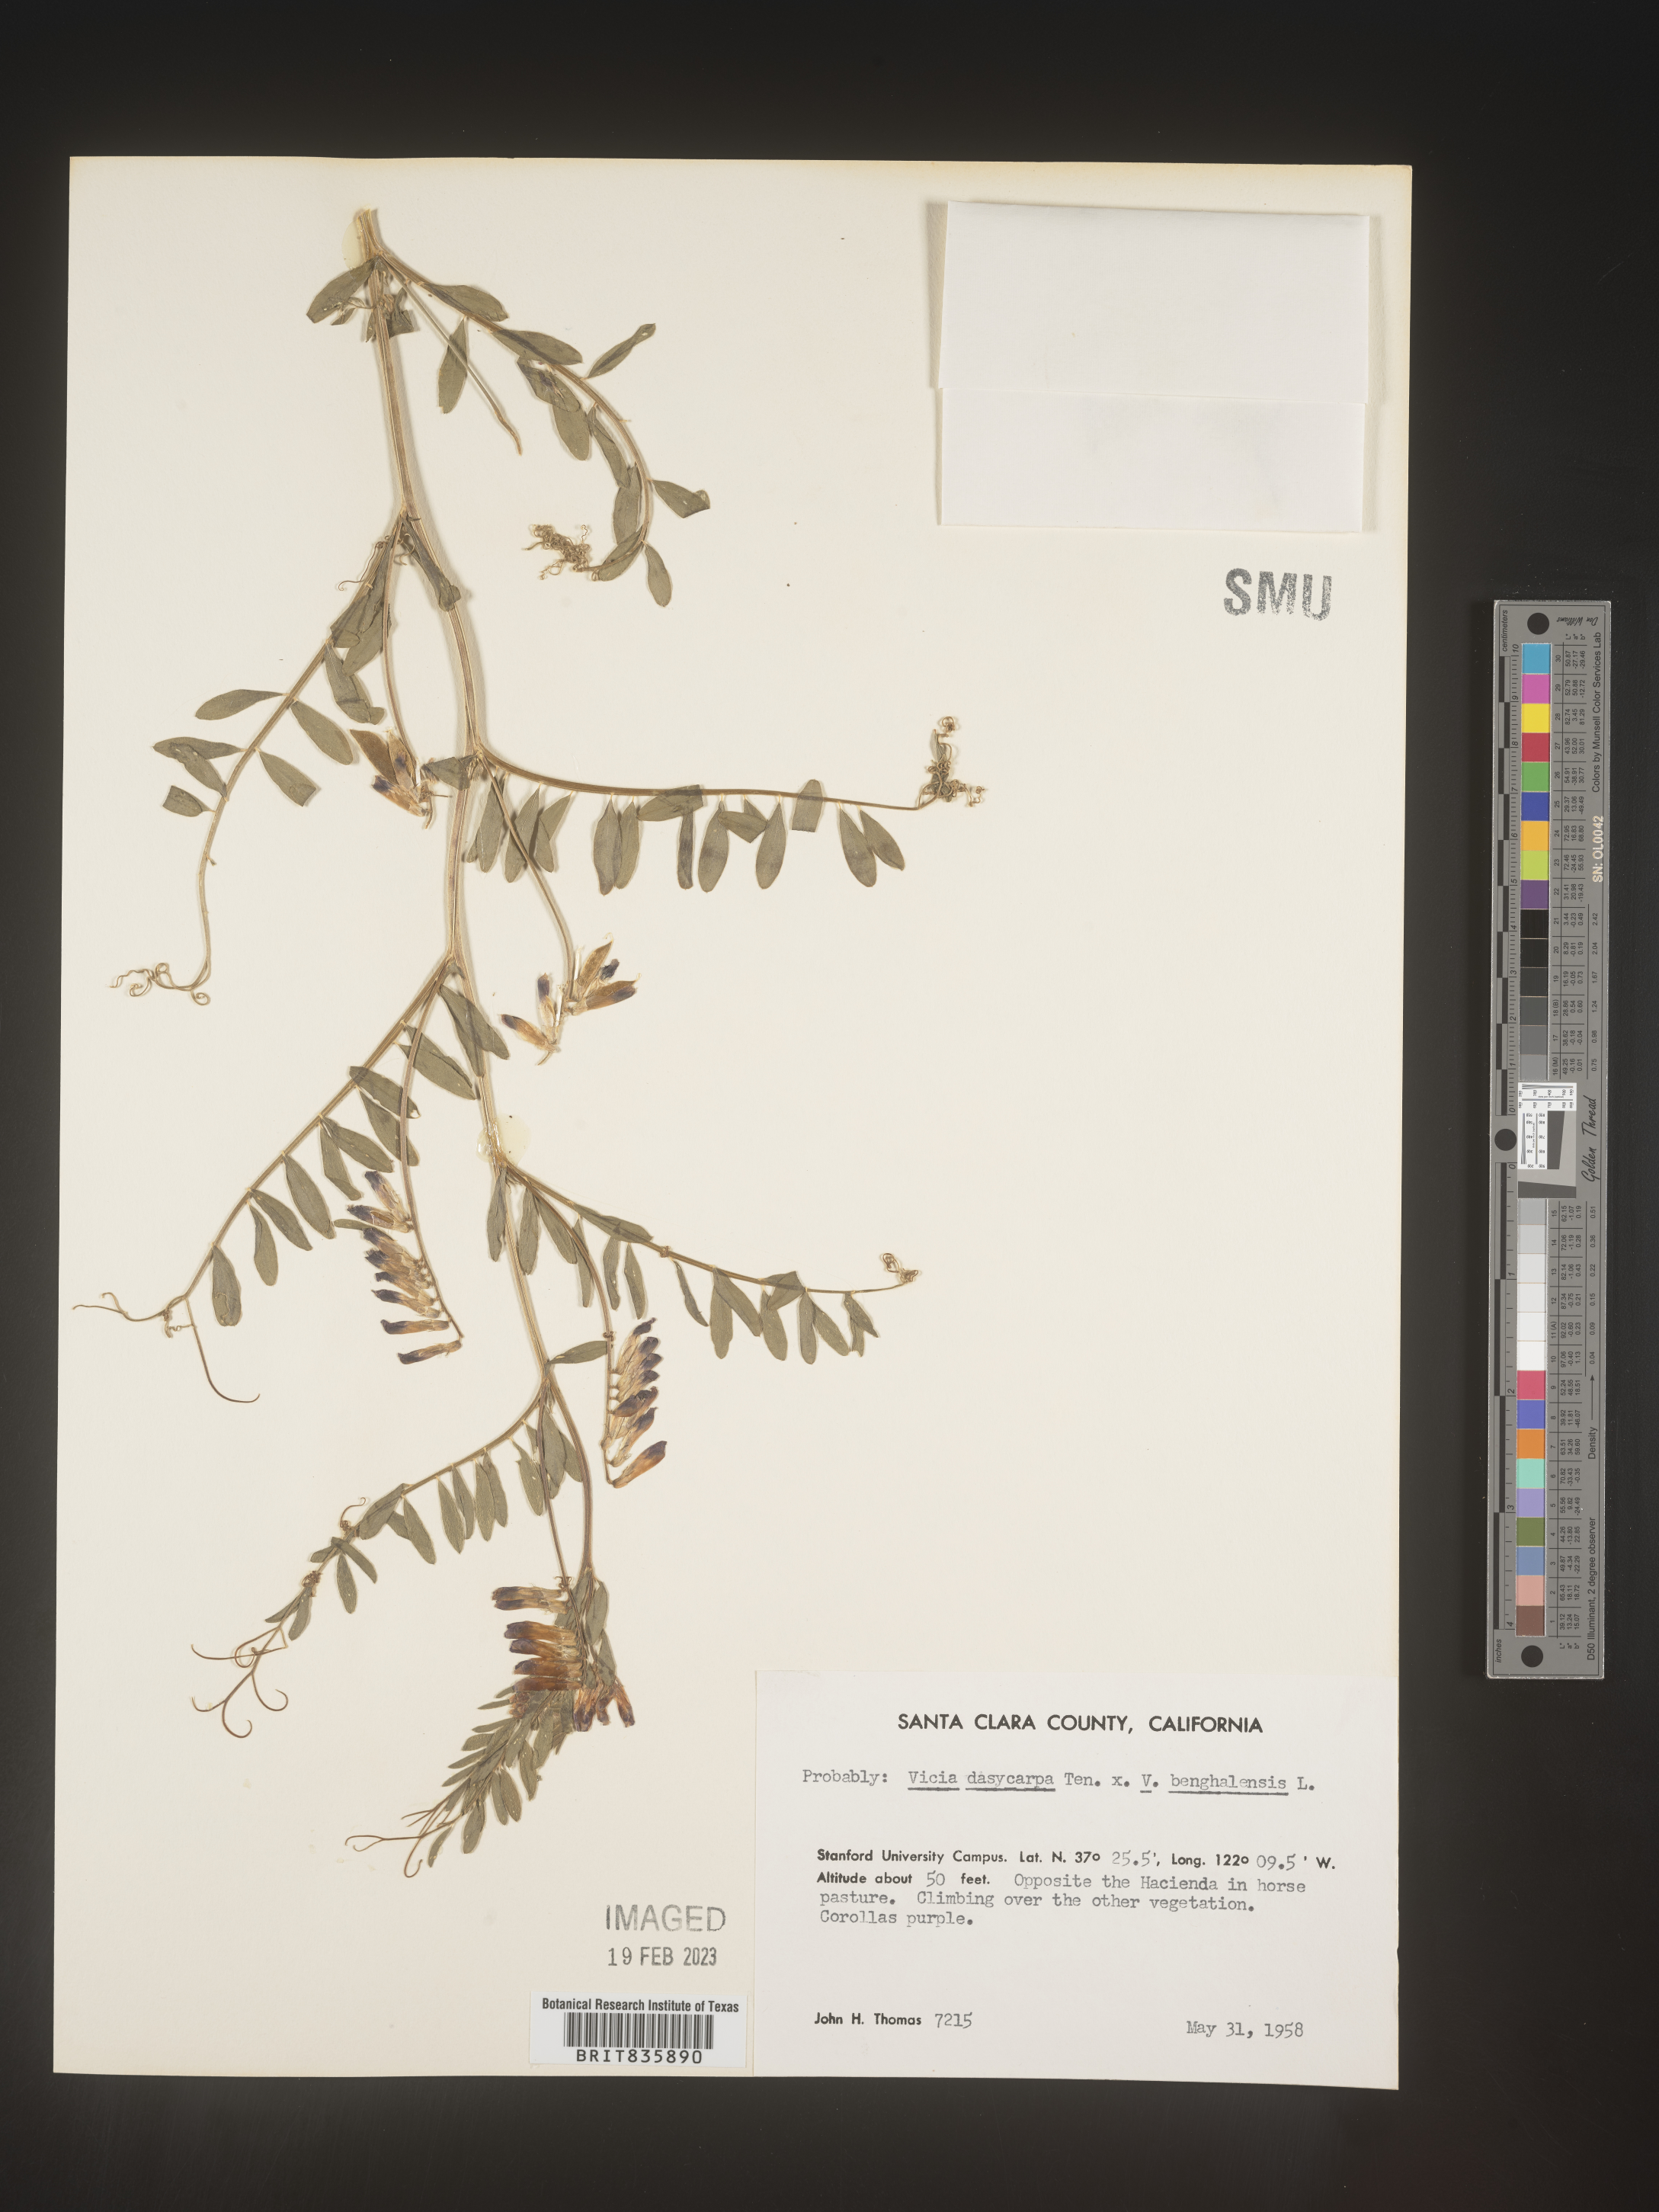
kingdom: Plantae
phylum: Tracheophyta
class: Magnoliopsida
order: Fabales
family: Fabaceae
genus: Vicia
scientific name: Vicia villosa
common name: Fodder vetch
